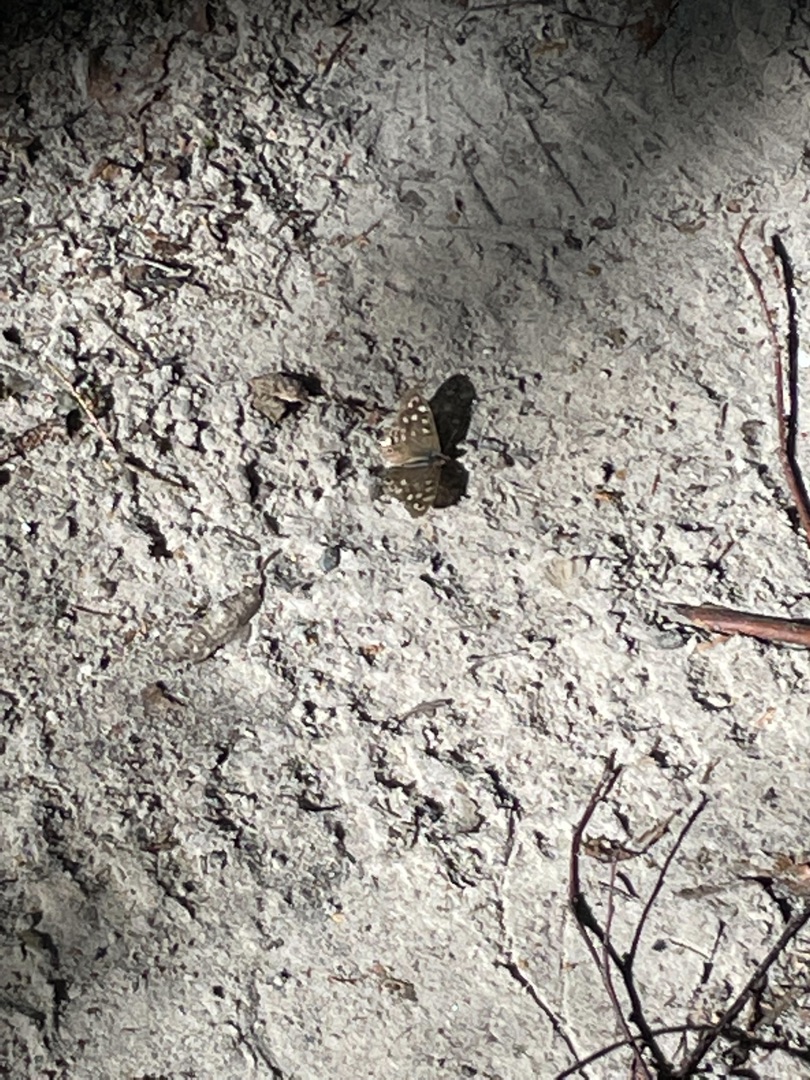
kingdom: Animalia
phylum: Arthropoda
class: Insecta
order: Lepidoptera
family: Nymphalidae
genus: Pararge
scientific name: Pararge aegeria
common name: Skovrandøje
